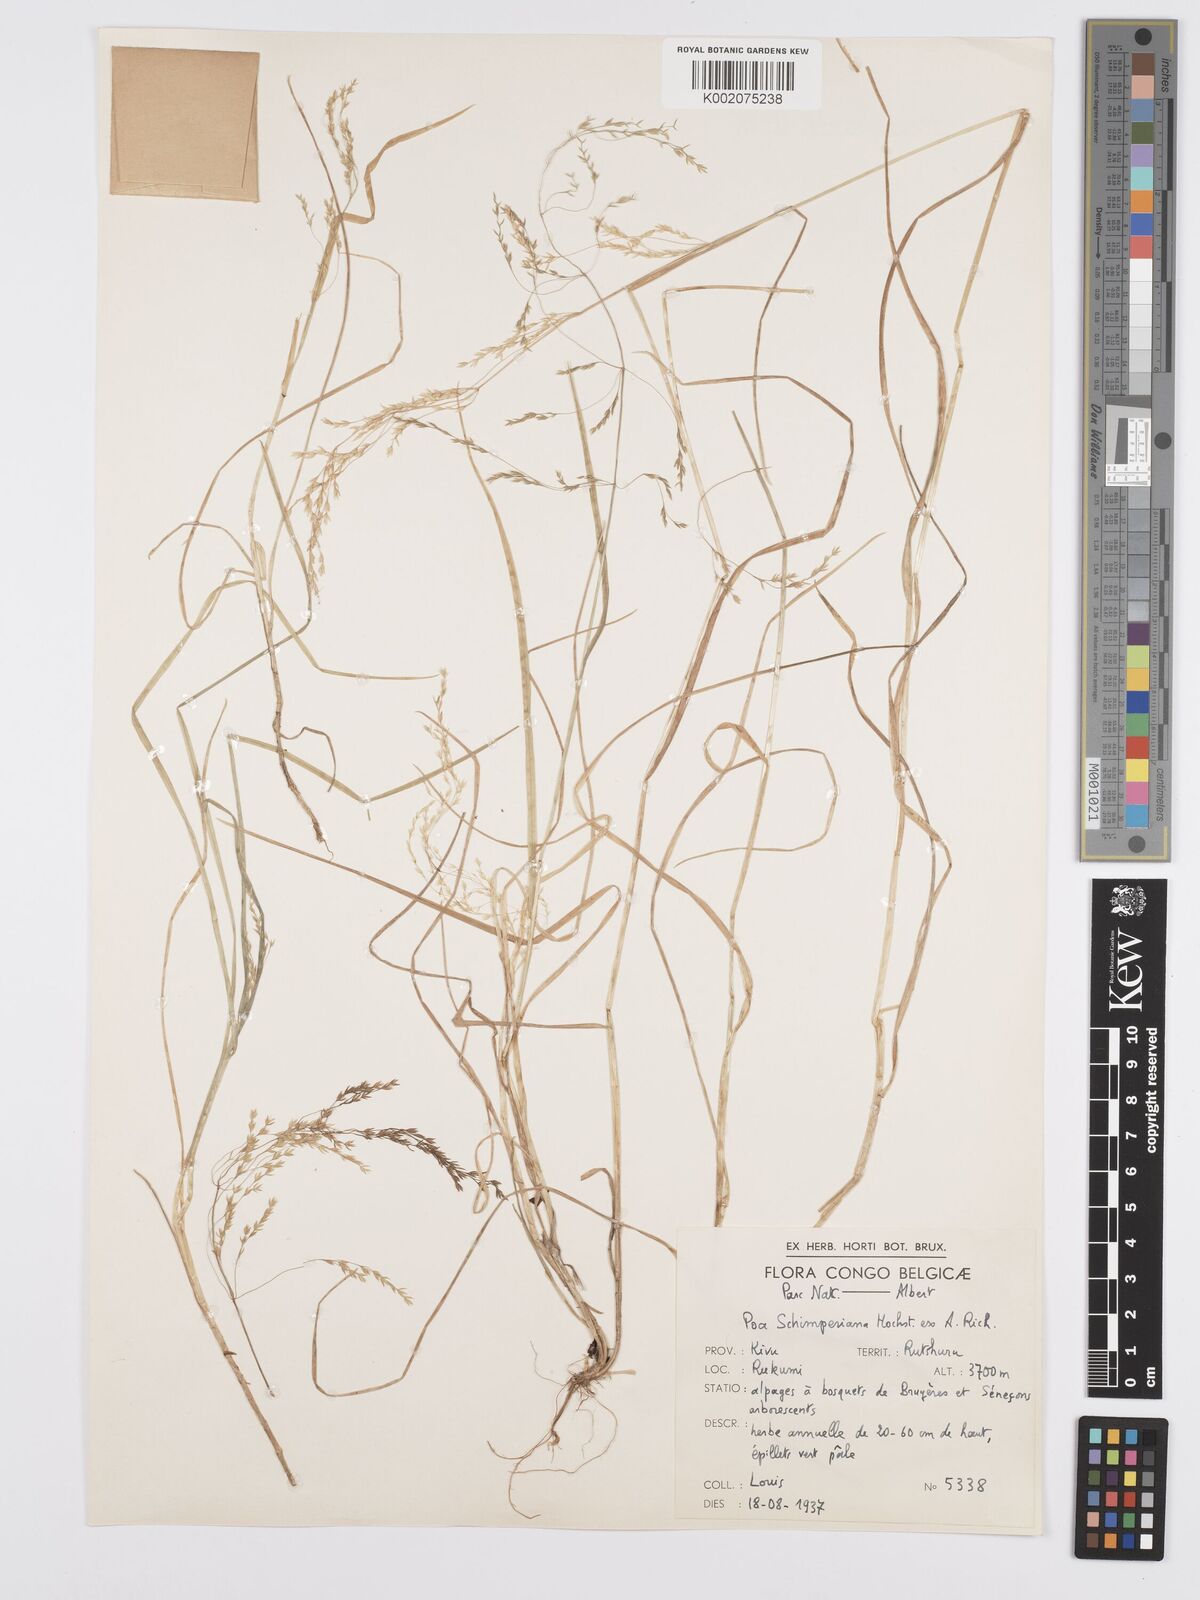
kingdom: Plantae
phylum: Tracheophyta
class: Liliopsida
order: Poales
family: Poaceae
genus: Poa
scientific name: Poa schimperiana
